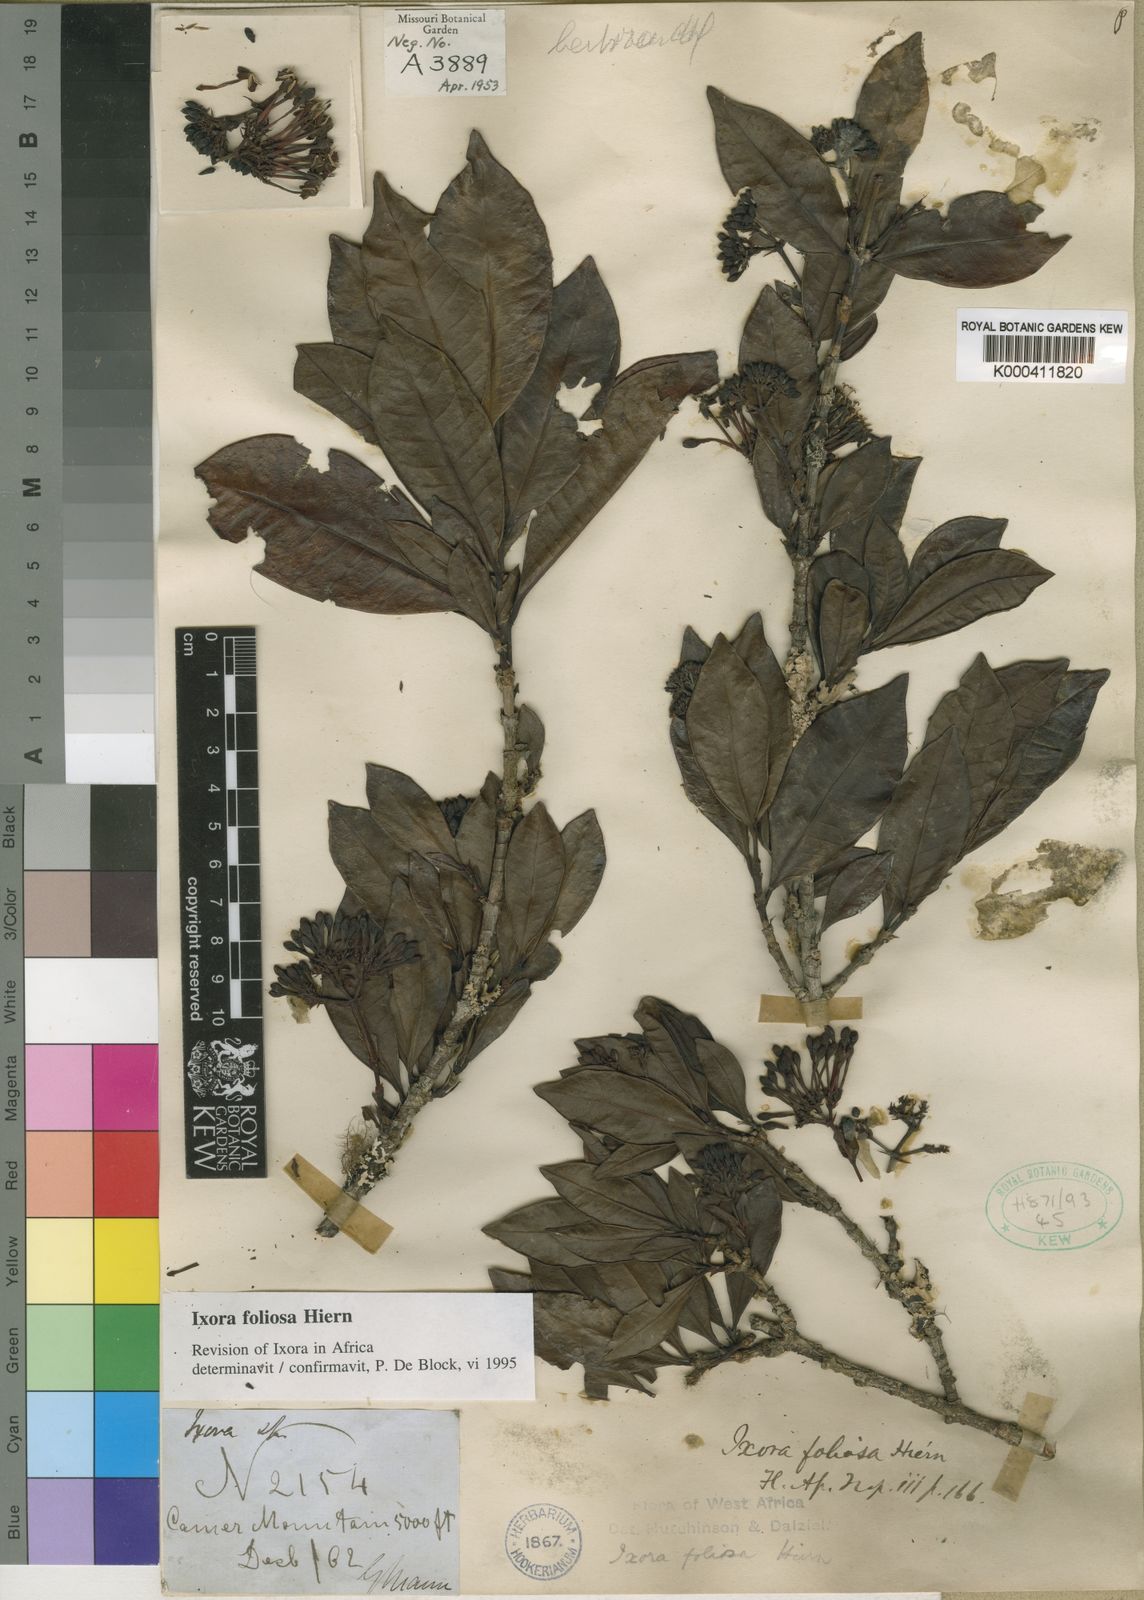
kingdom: Plantae
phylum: Tracheophyta
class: Magnoliopsida
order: Gentianales
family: Rubiaceae
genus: Ixora
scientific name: Ixora foliosa
